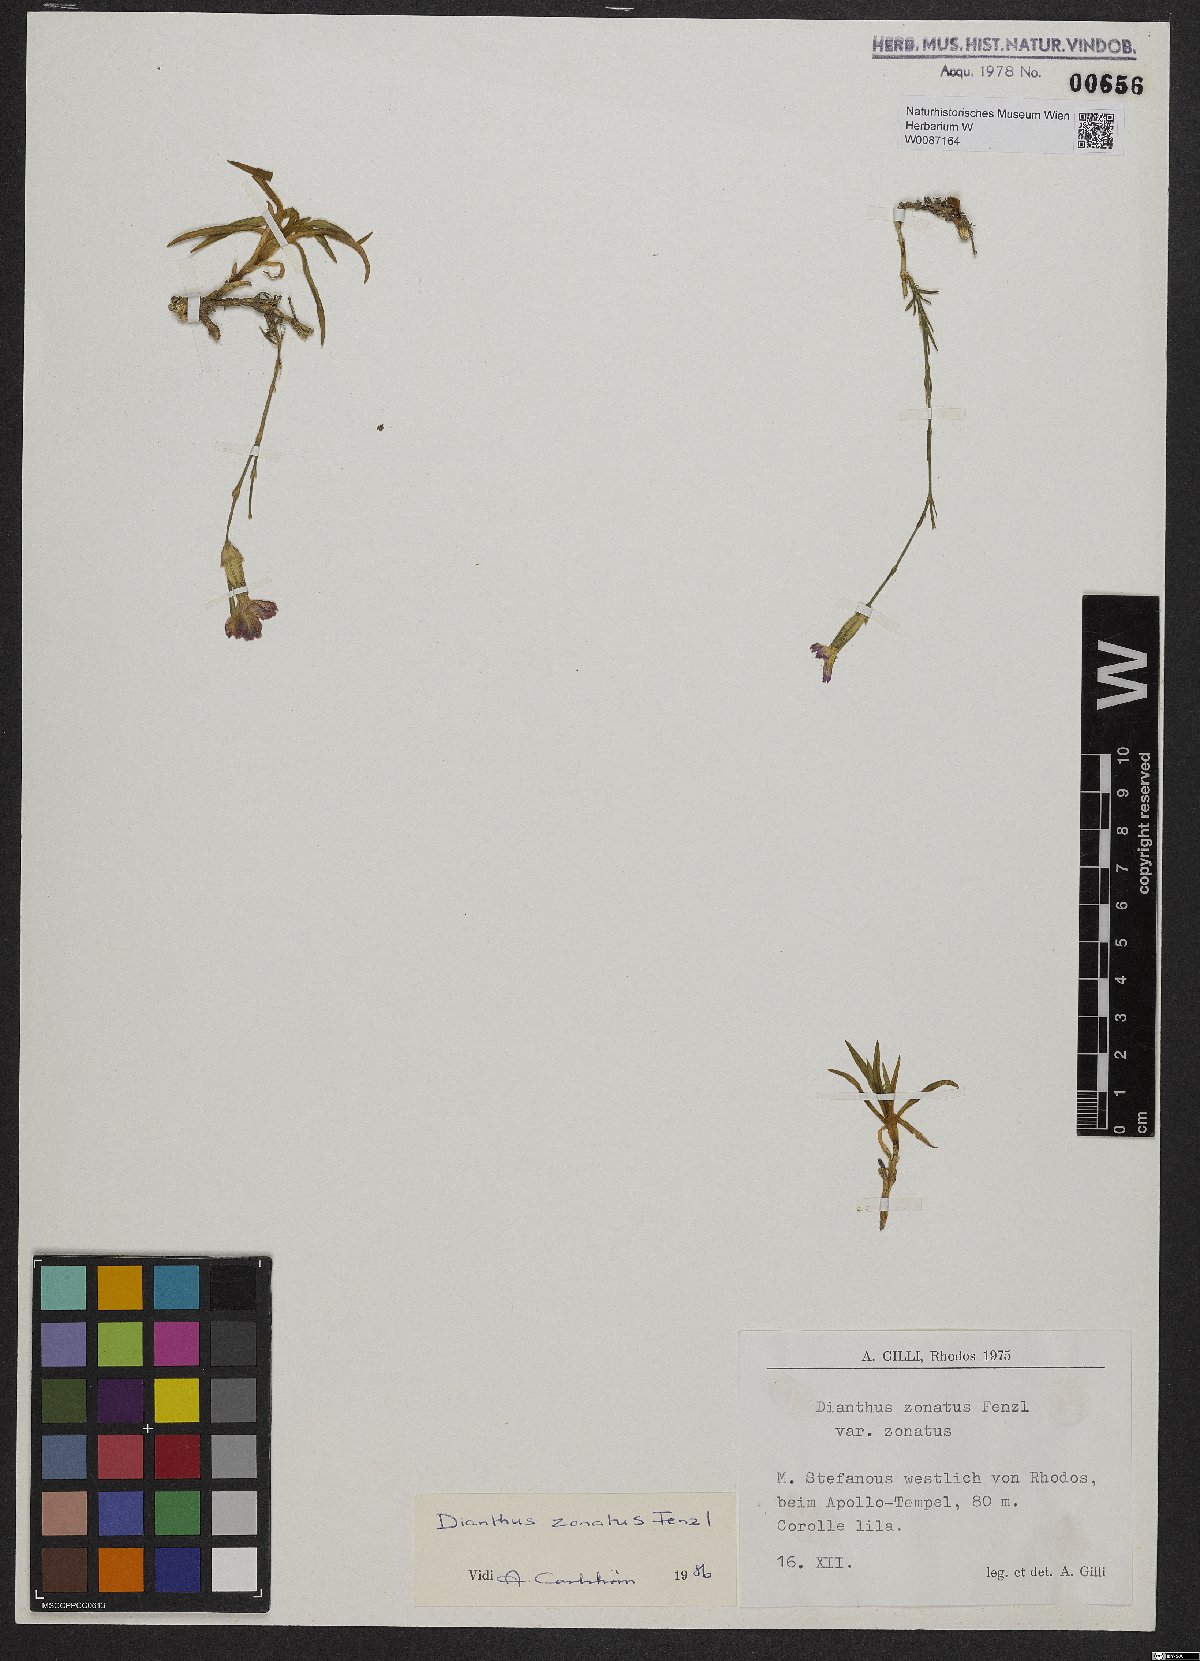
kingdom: Plantae
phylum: Tracheophyta
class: Magnoliopsida
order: Caryophyllales
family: Caryophyllaceae
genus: Dianthus
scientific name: Dianthus zonatus
